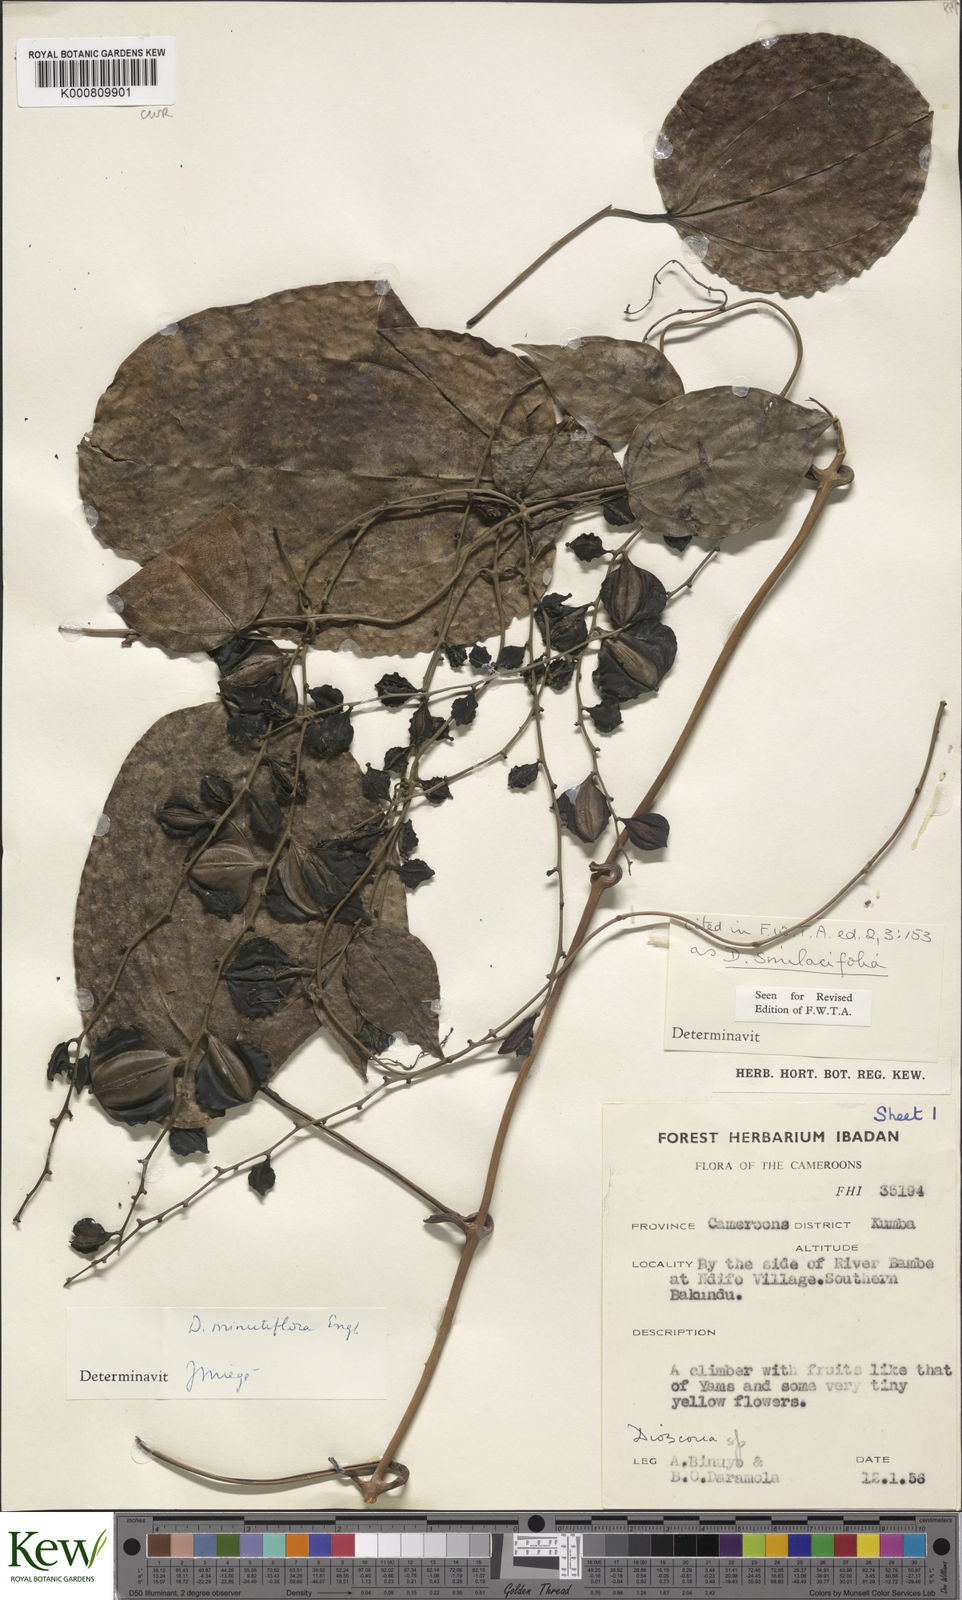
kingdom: Plantae
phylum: Tracheophyta
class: Liliopsida
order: Dioscoreales
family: Dioscoreaceae
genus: Dioscorea
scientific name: Dioscorea smilacifolia
